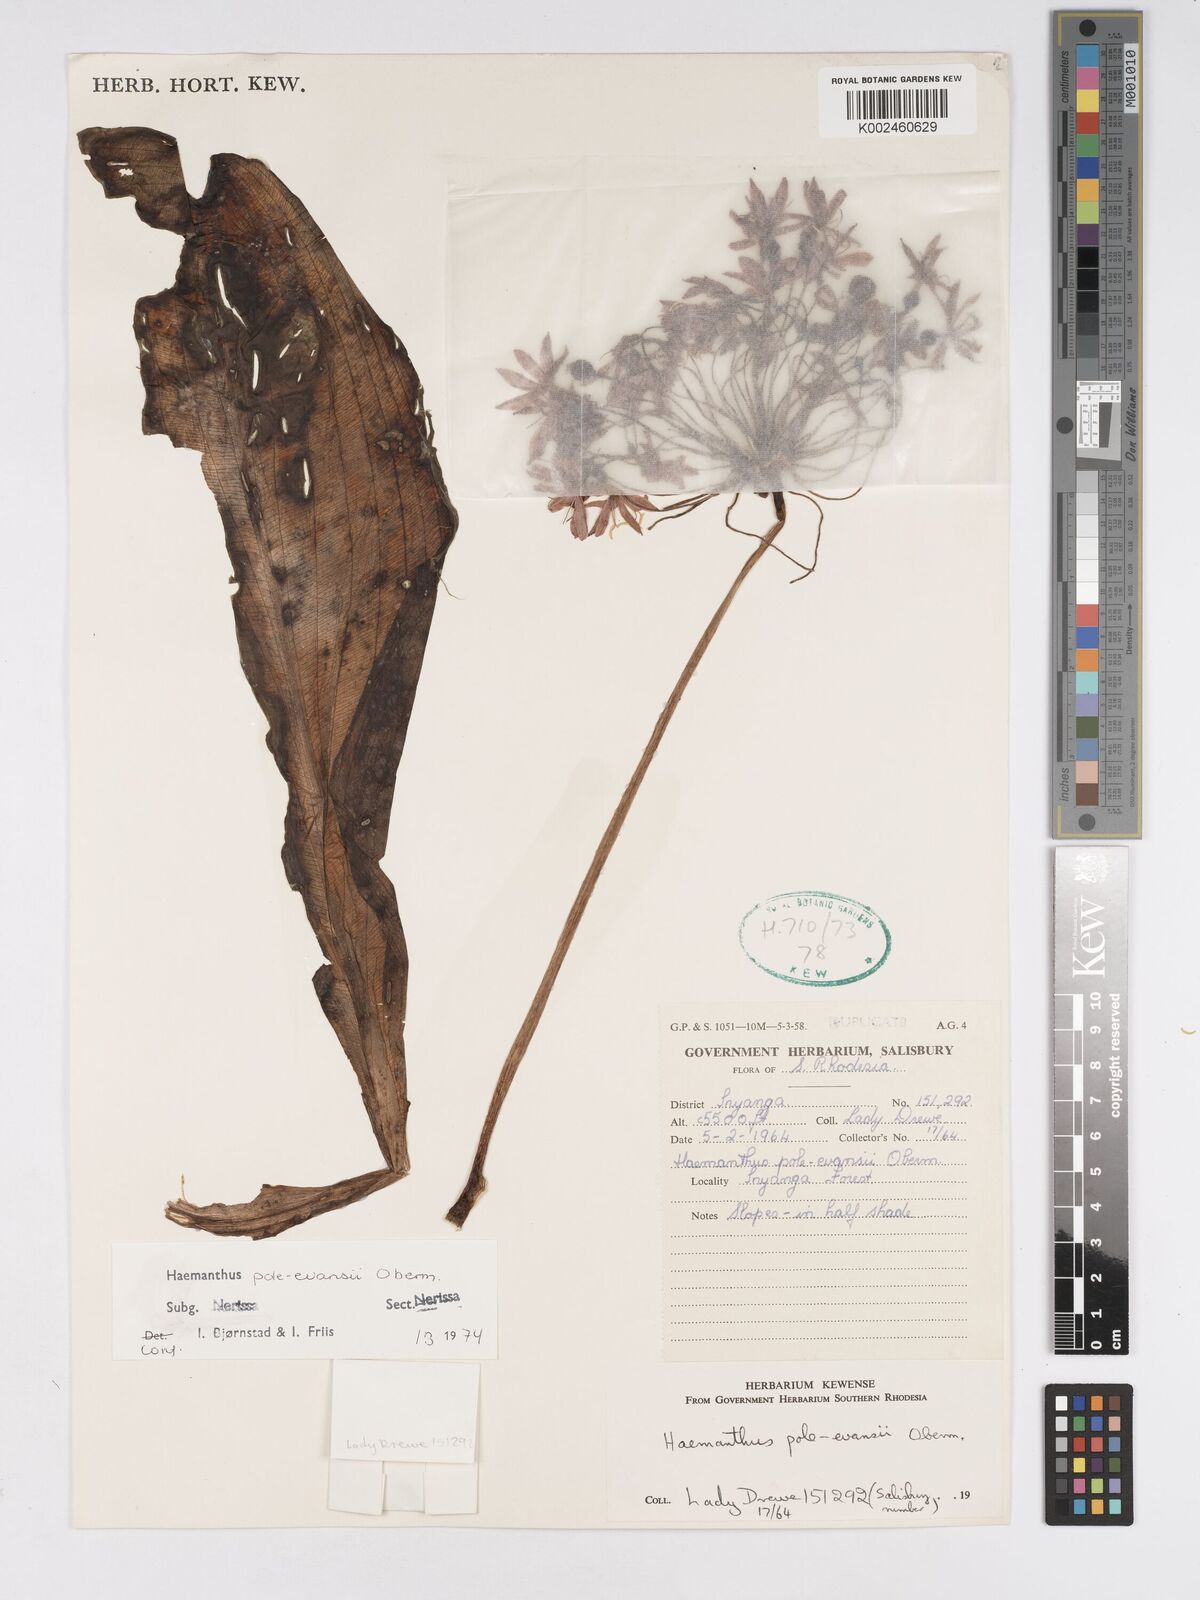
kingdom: Plantae
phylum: Tracheophyta
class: Liliopsida
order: Asparagales
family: Amaryllidaceae
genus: Scadoxus
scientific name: Scadoxus pole-evansii
